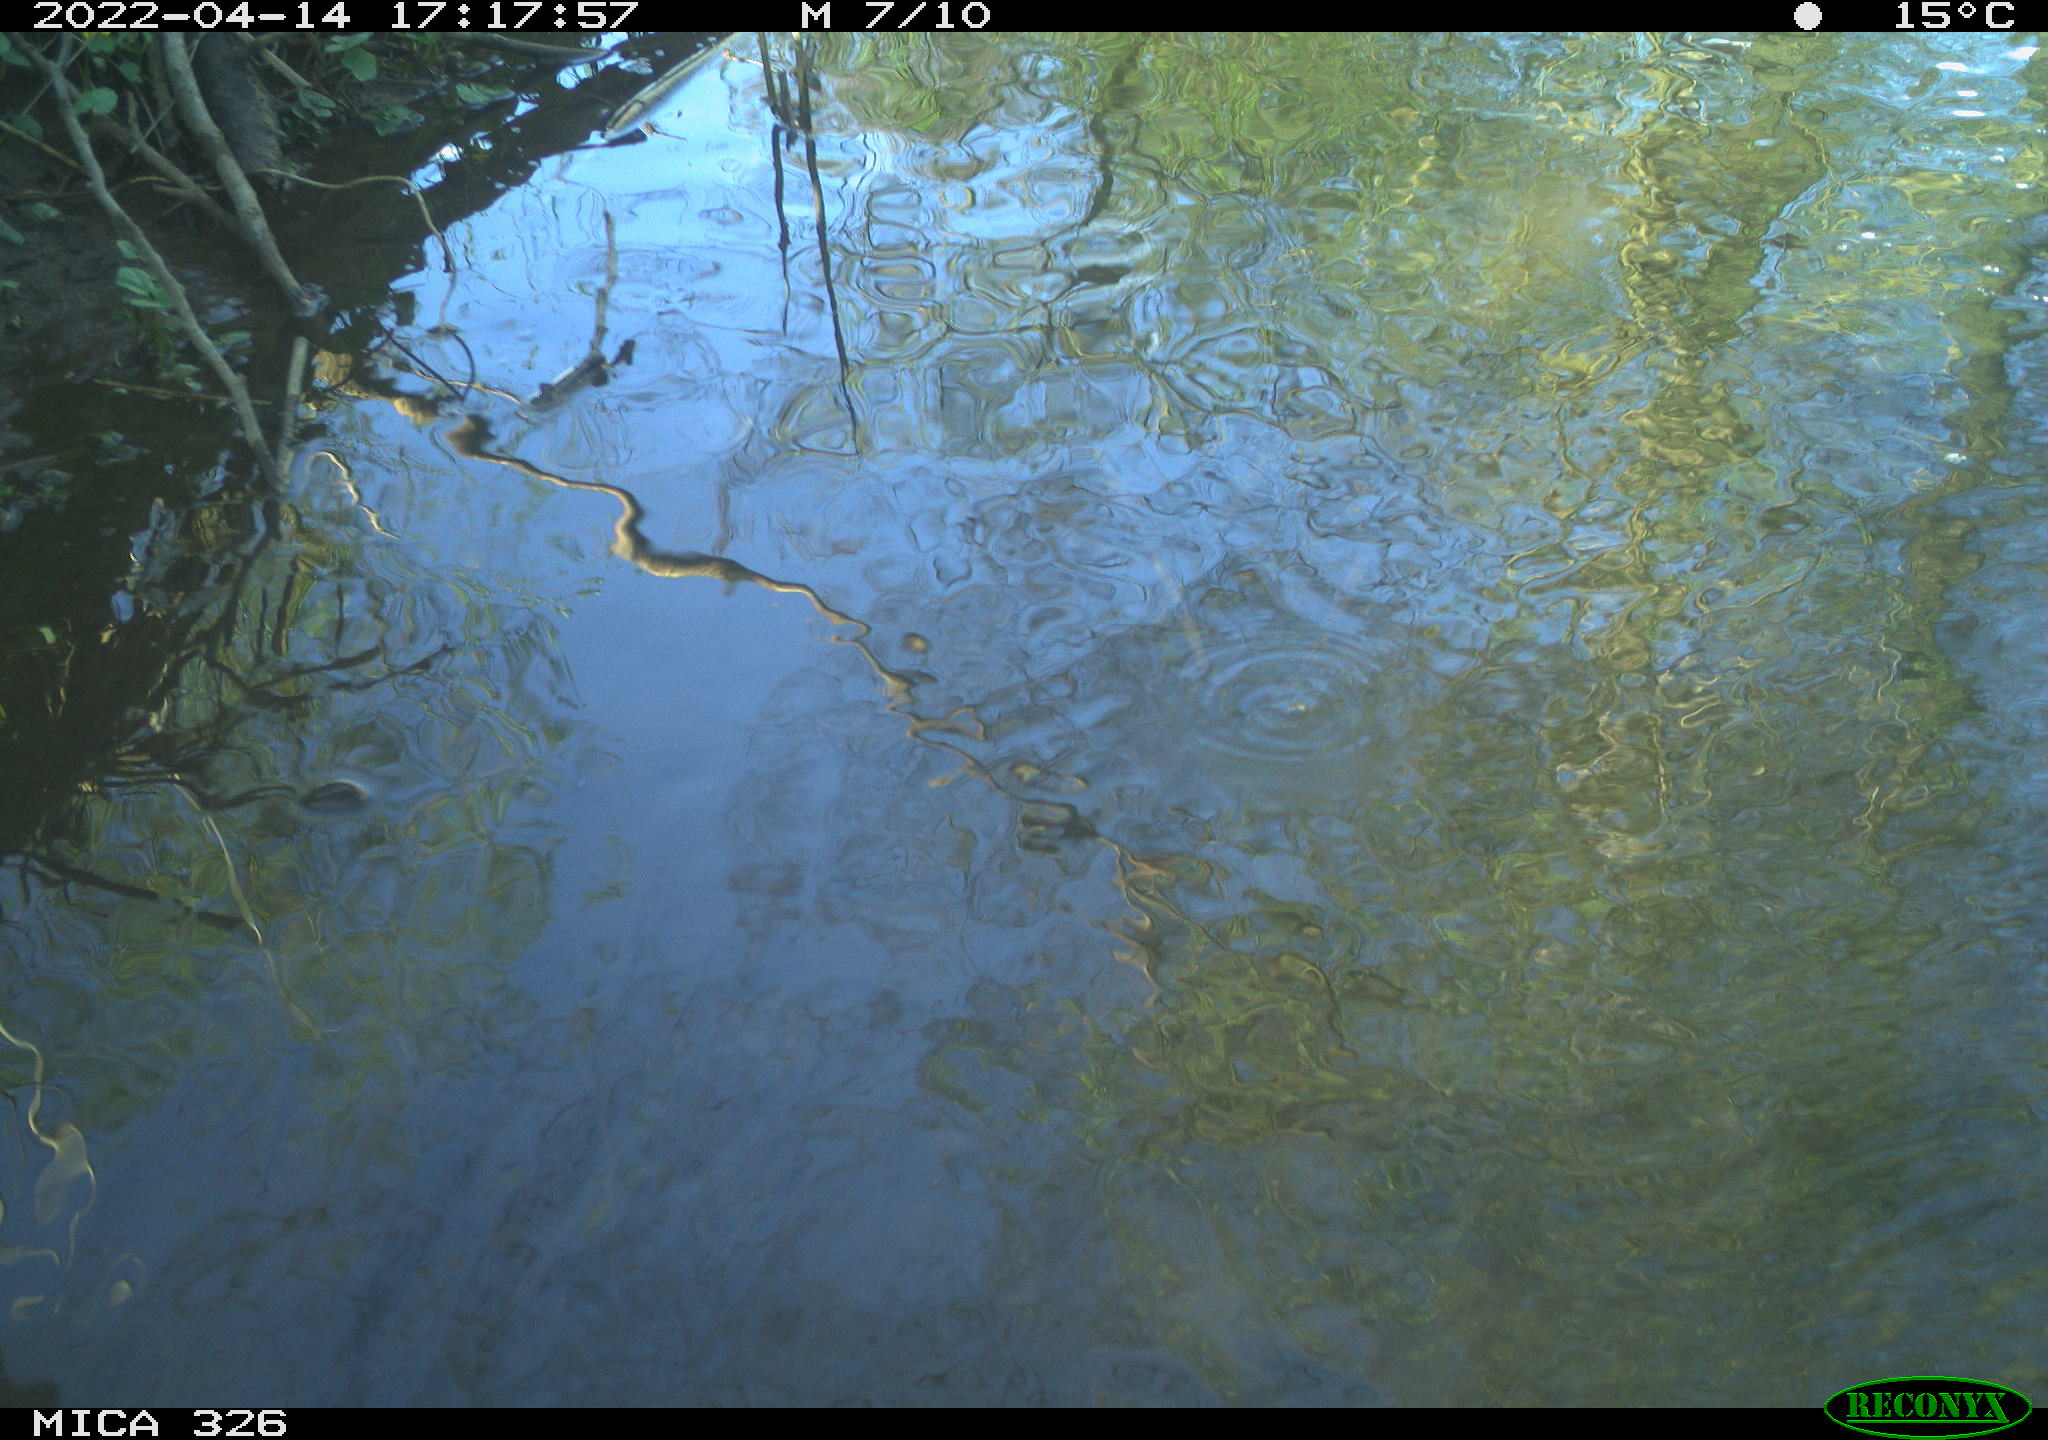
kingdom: Animalia
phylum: Chordata
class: Mammalia
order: Rodentia
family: Cricetidae
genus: Ondatra
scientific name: Ondatra zibethicus
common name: Muskrat
